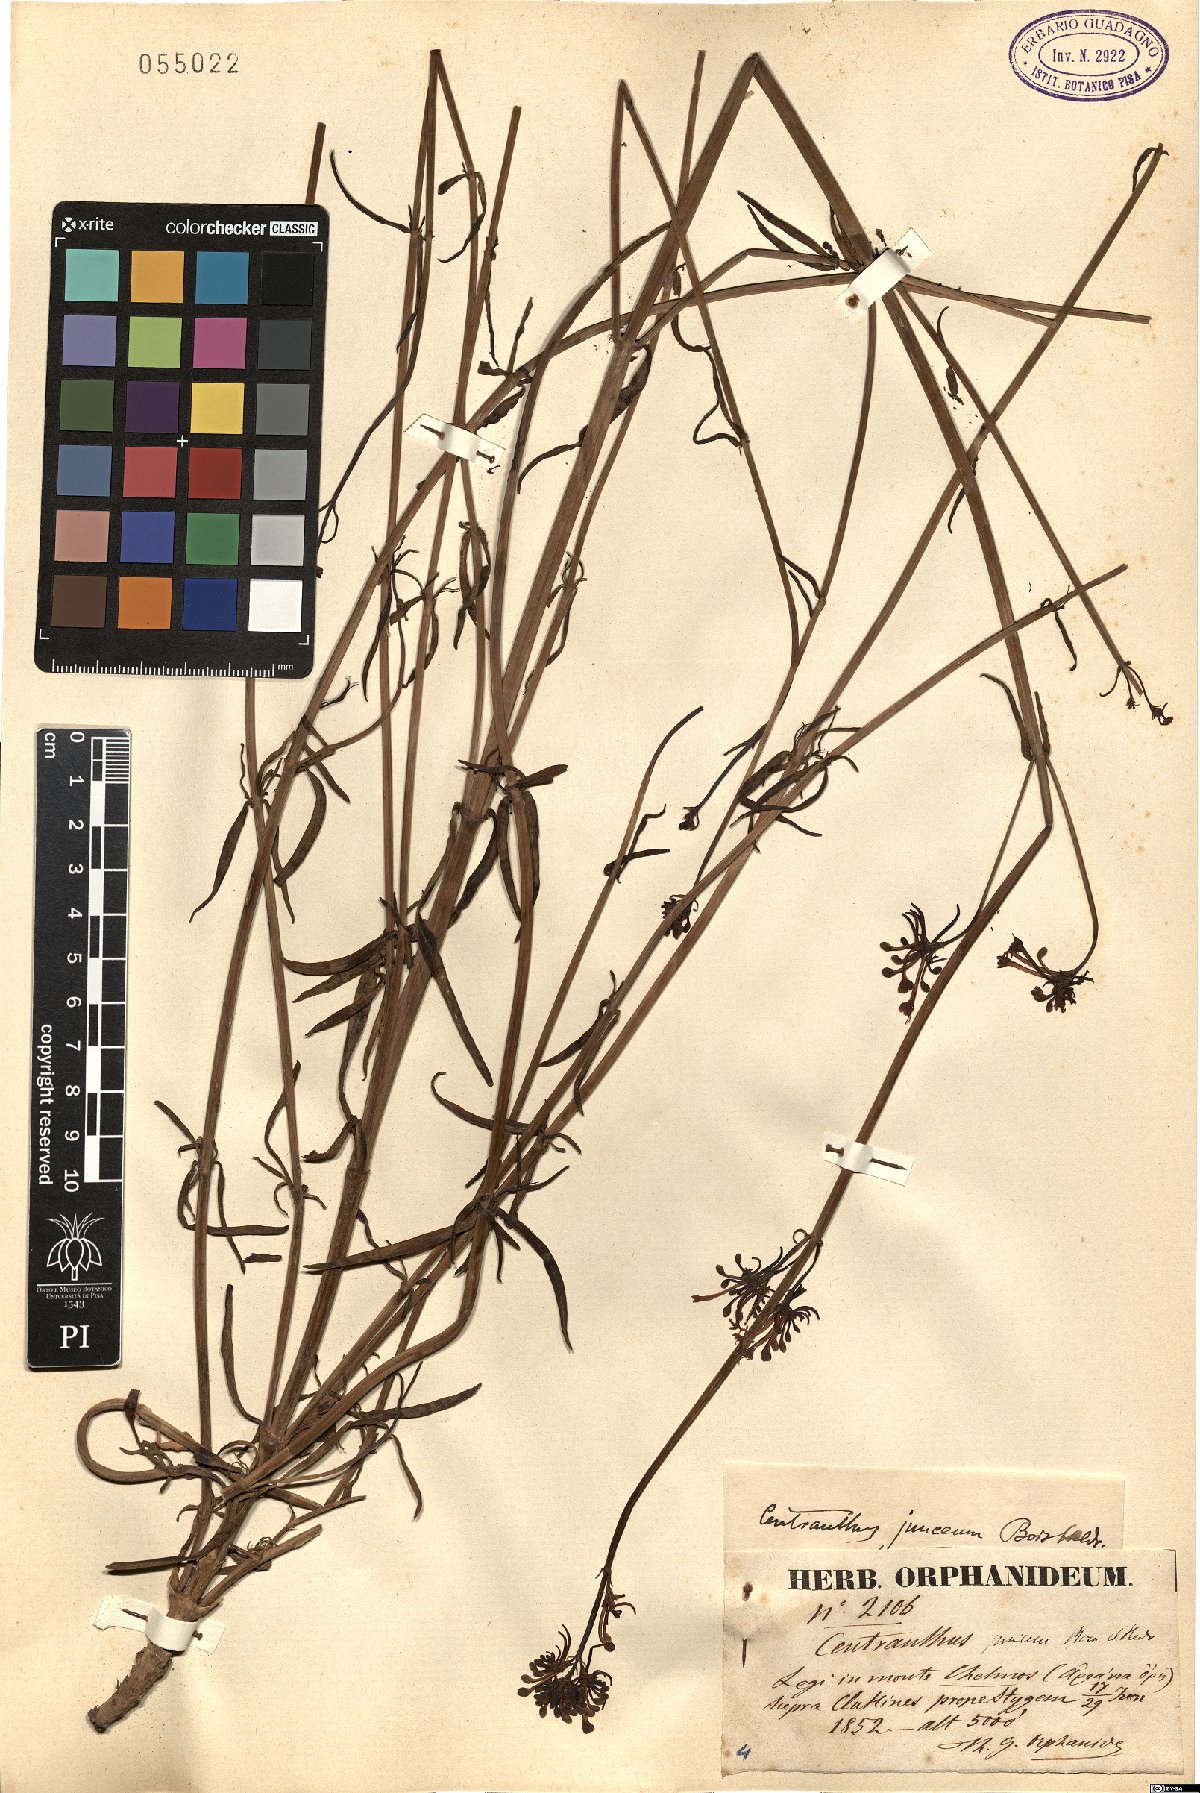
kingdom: Plantae
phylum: Tracheophyta
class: Magnoliopsida
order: Dipsacales
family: Caprifoliaceae
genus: Centranthus
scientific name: Centranthus longiflorus
